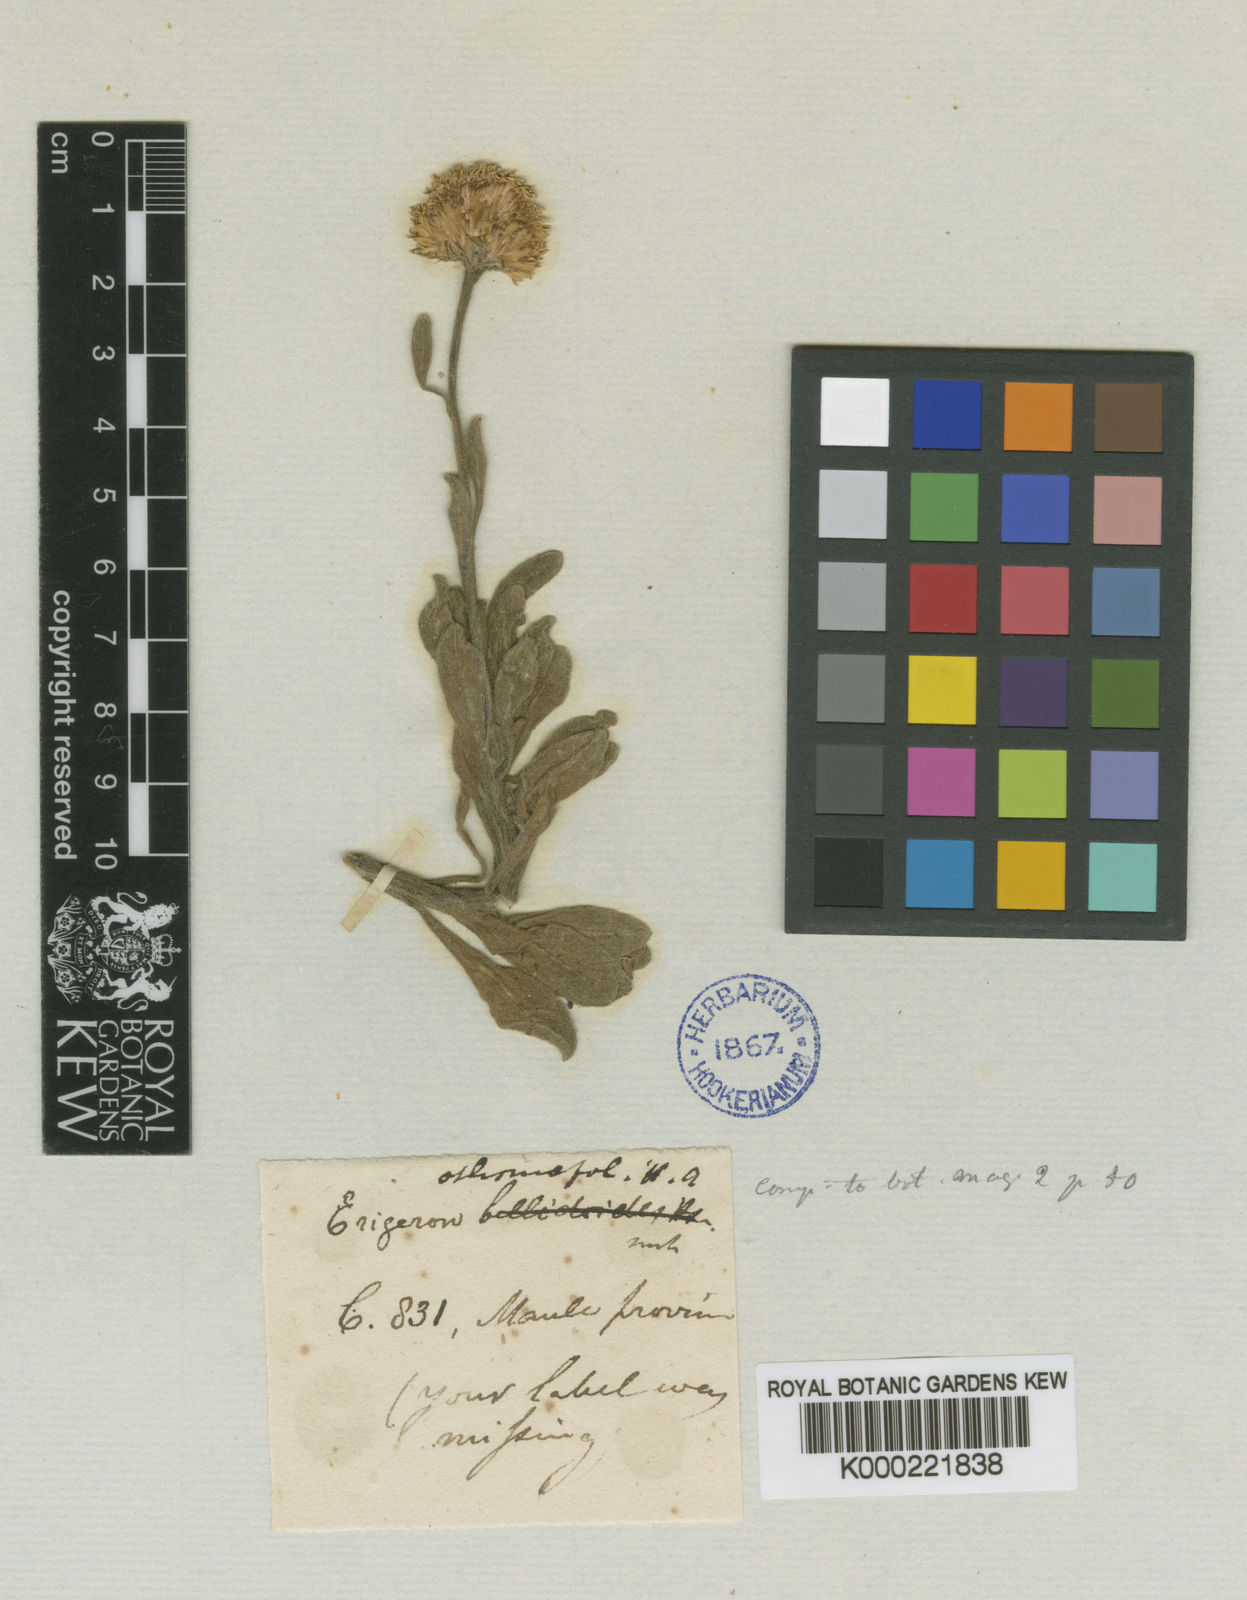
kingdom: Plantae
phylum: Tracheophyta
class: Magnoliopsida
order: Asterales
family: Asteraceae
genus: Erigeron
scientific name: Erigeron othonnifolius
